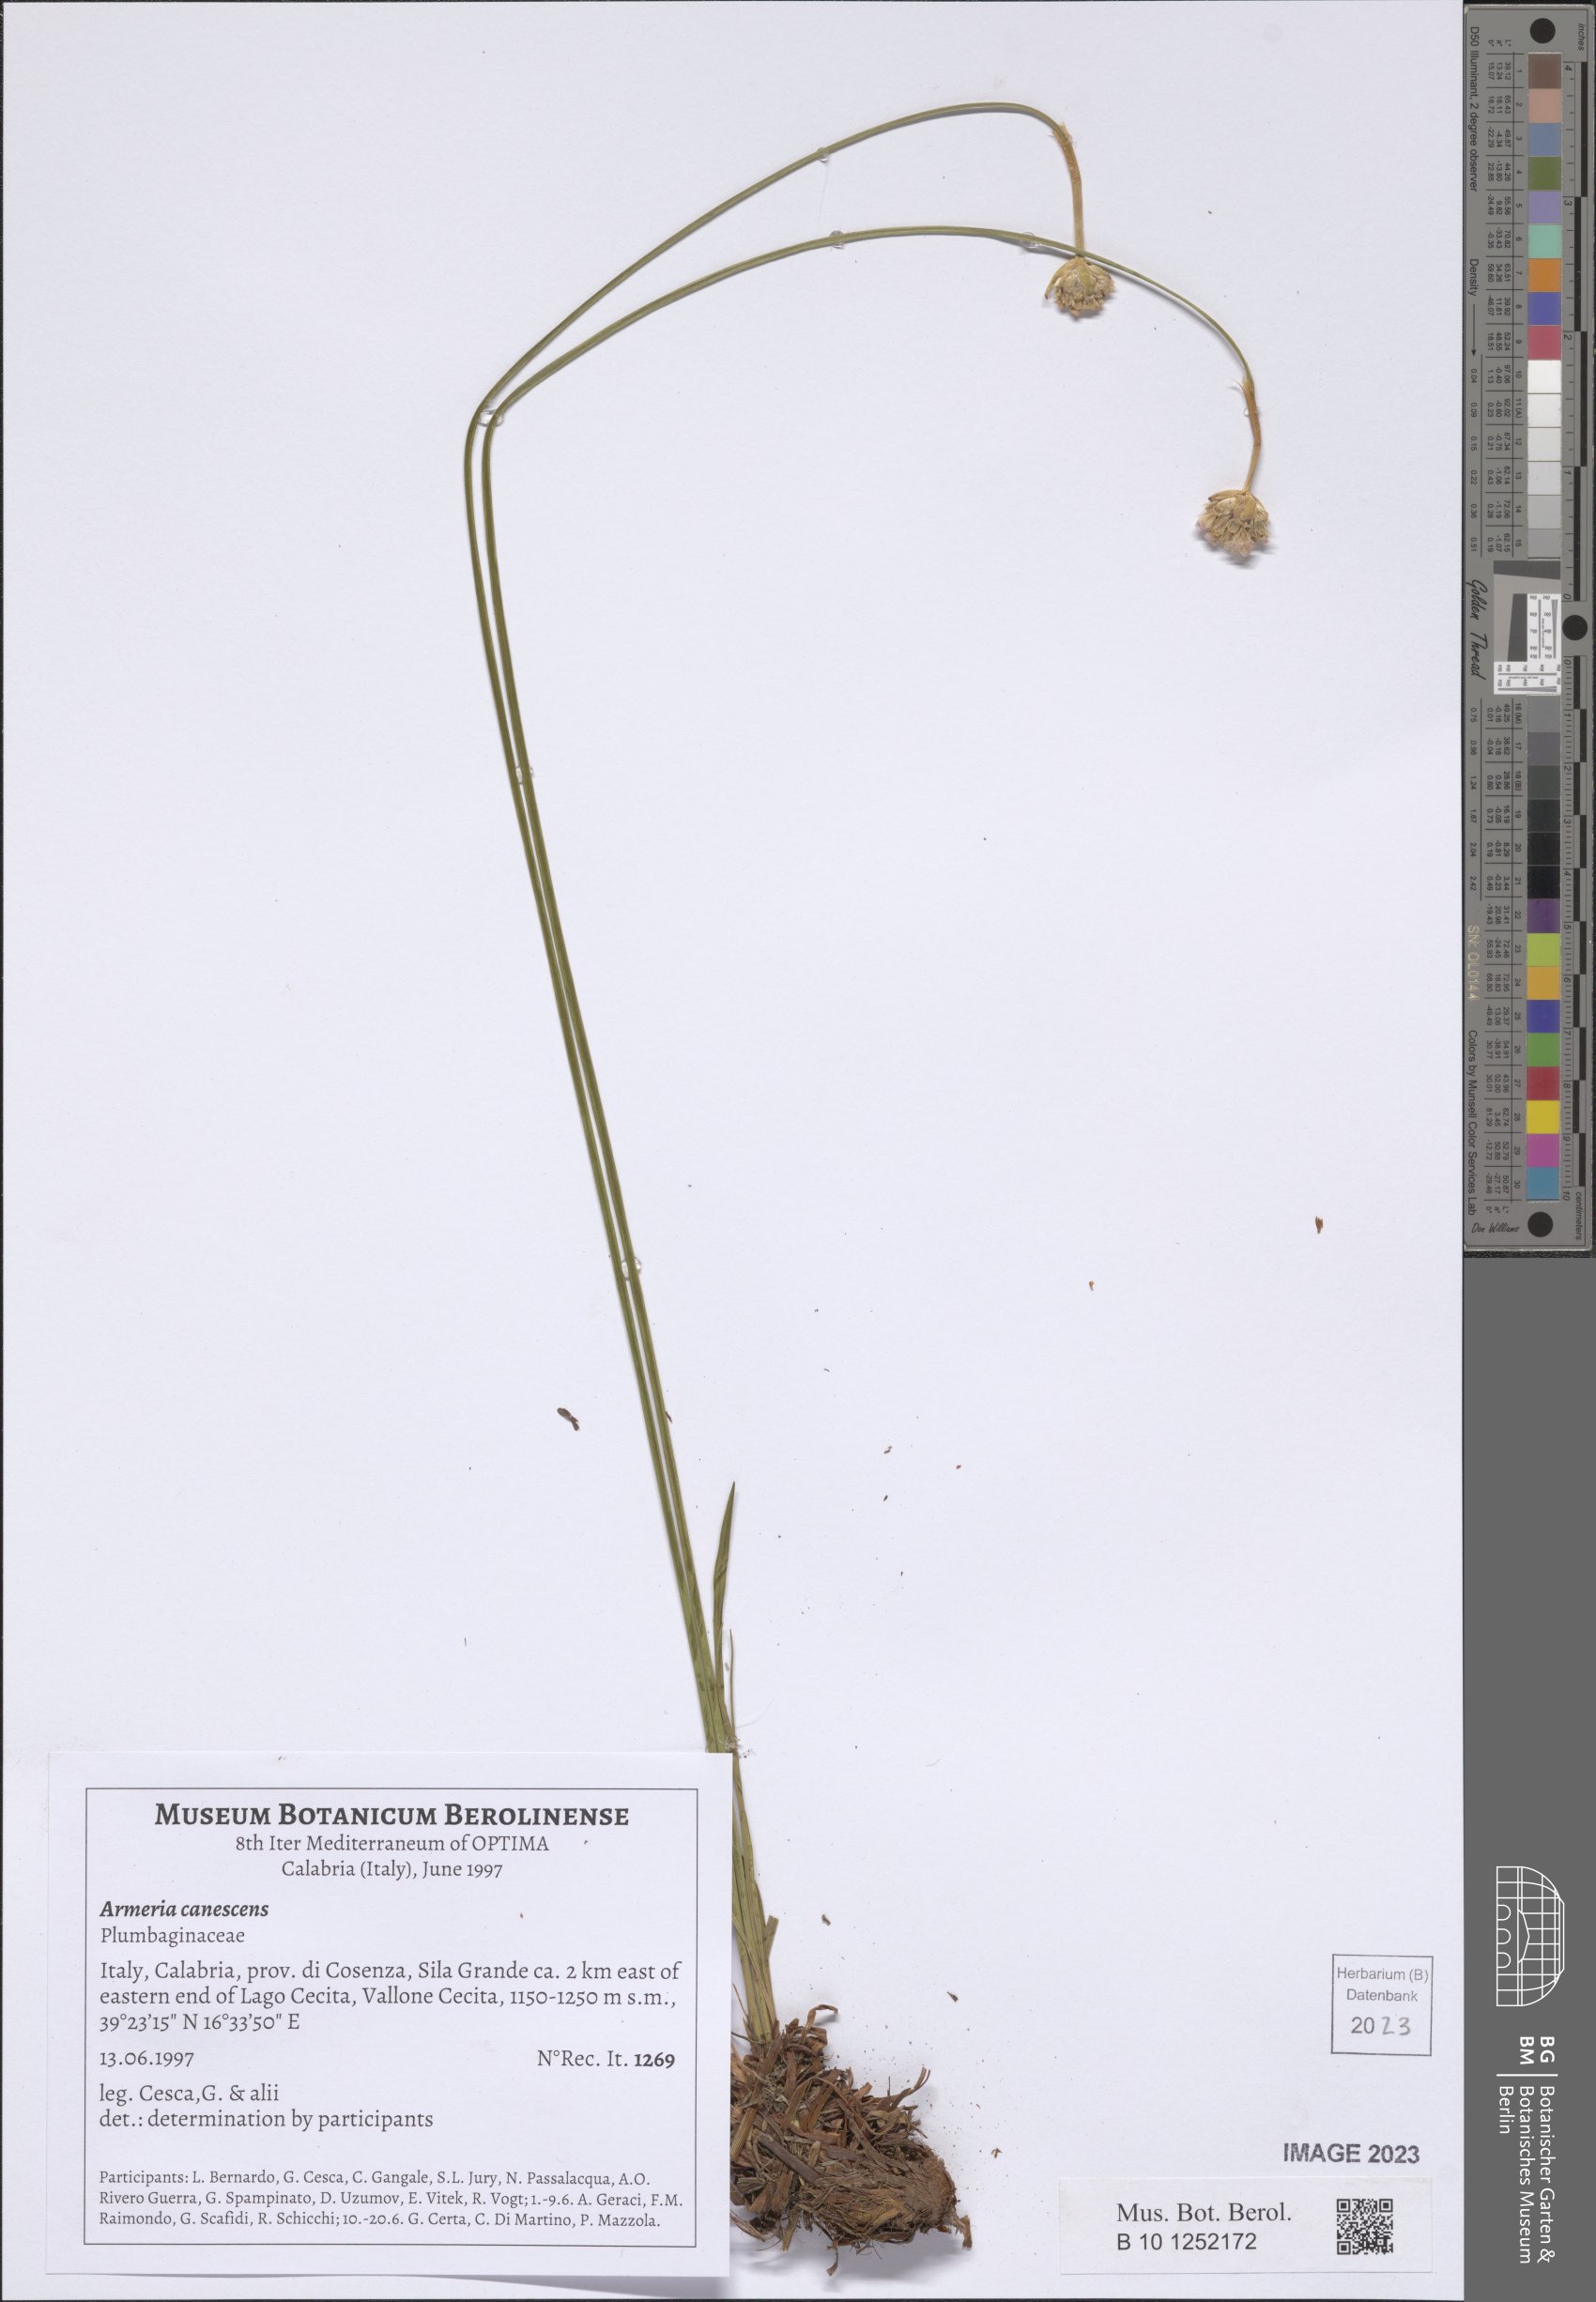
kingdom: Plantae
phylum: Tracheophyta
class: Magnoliopsida
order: Caryophyllales
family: Plumbaginaceae
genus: Armeria
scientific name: Armeria canescens
